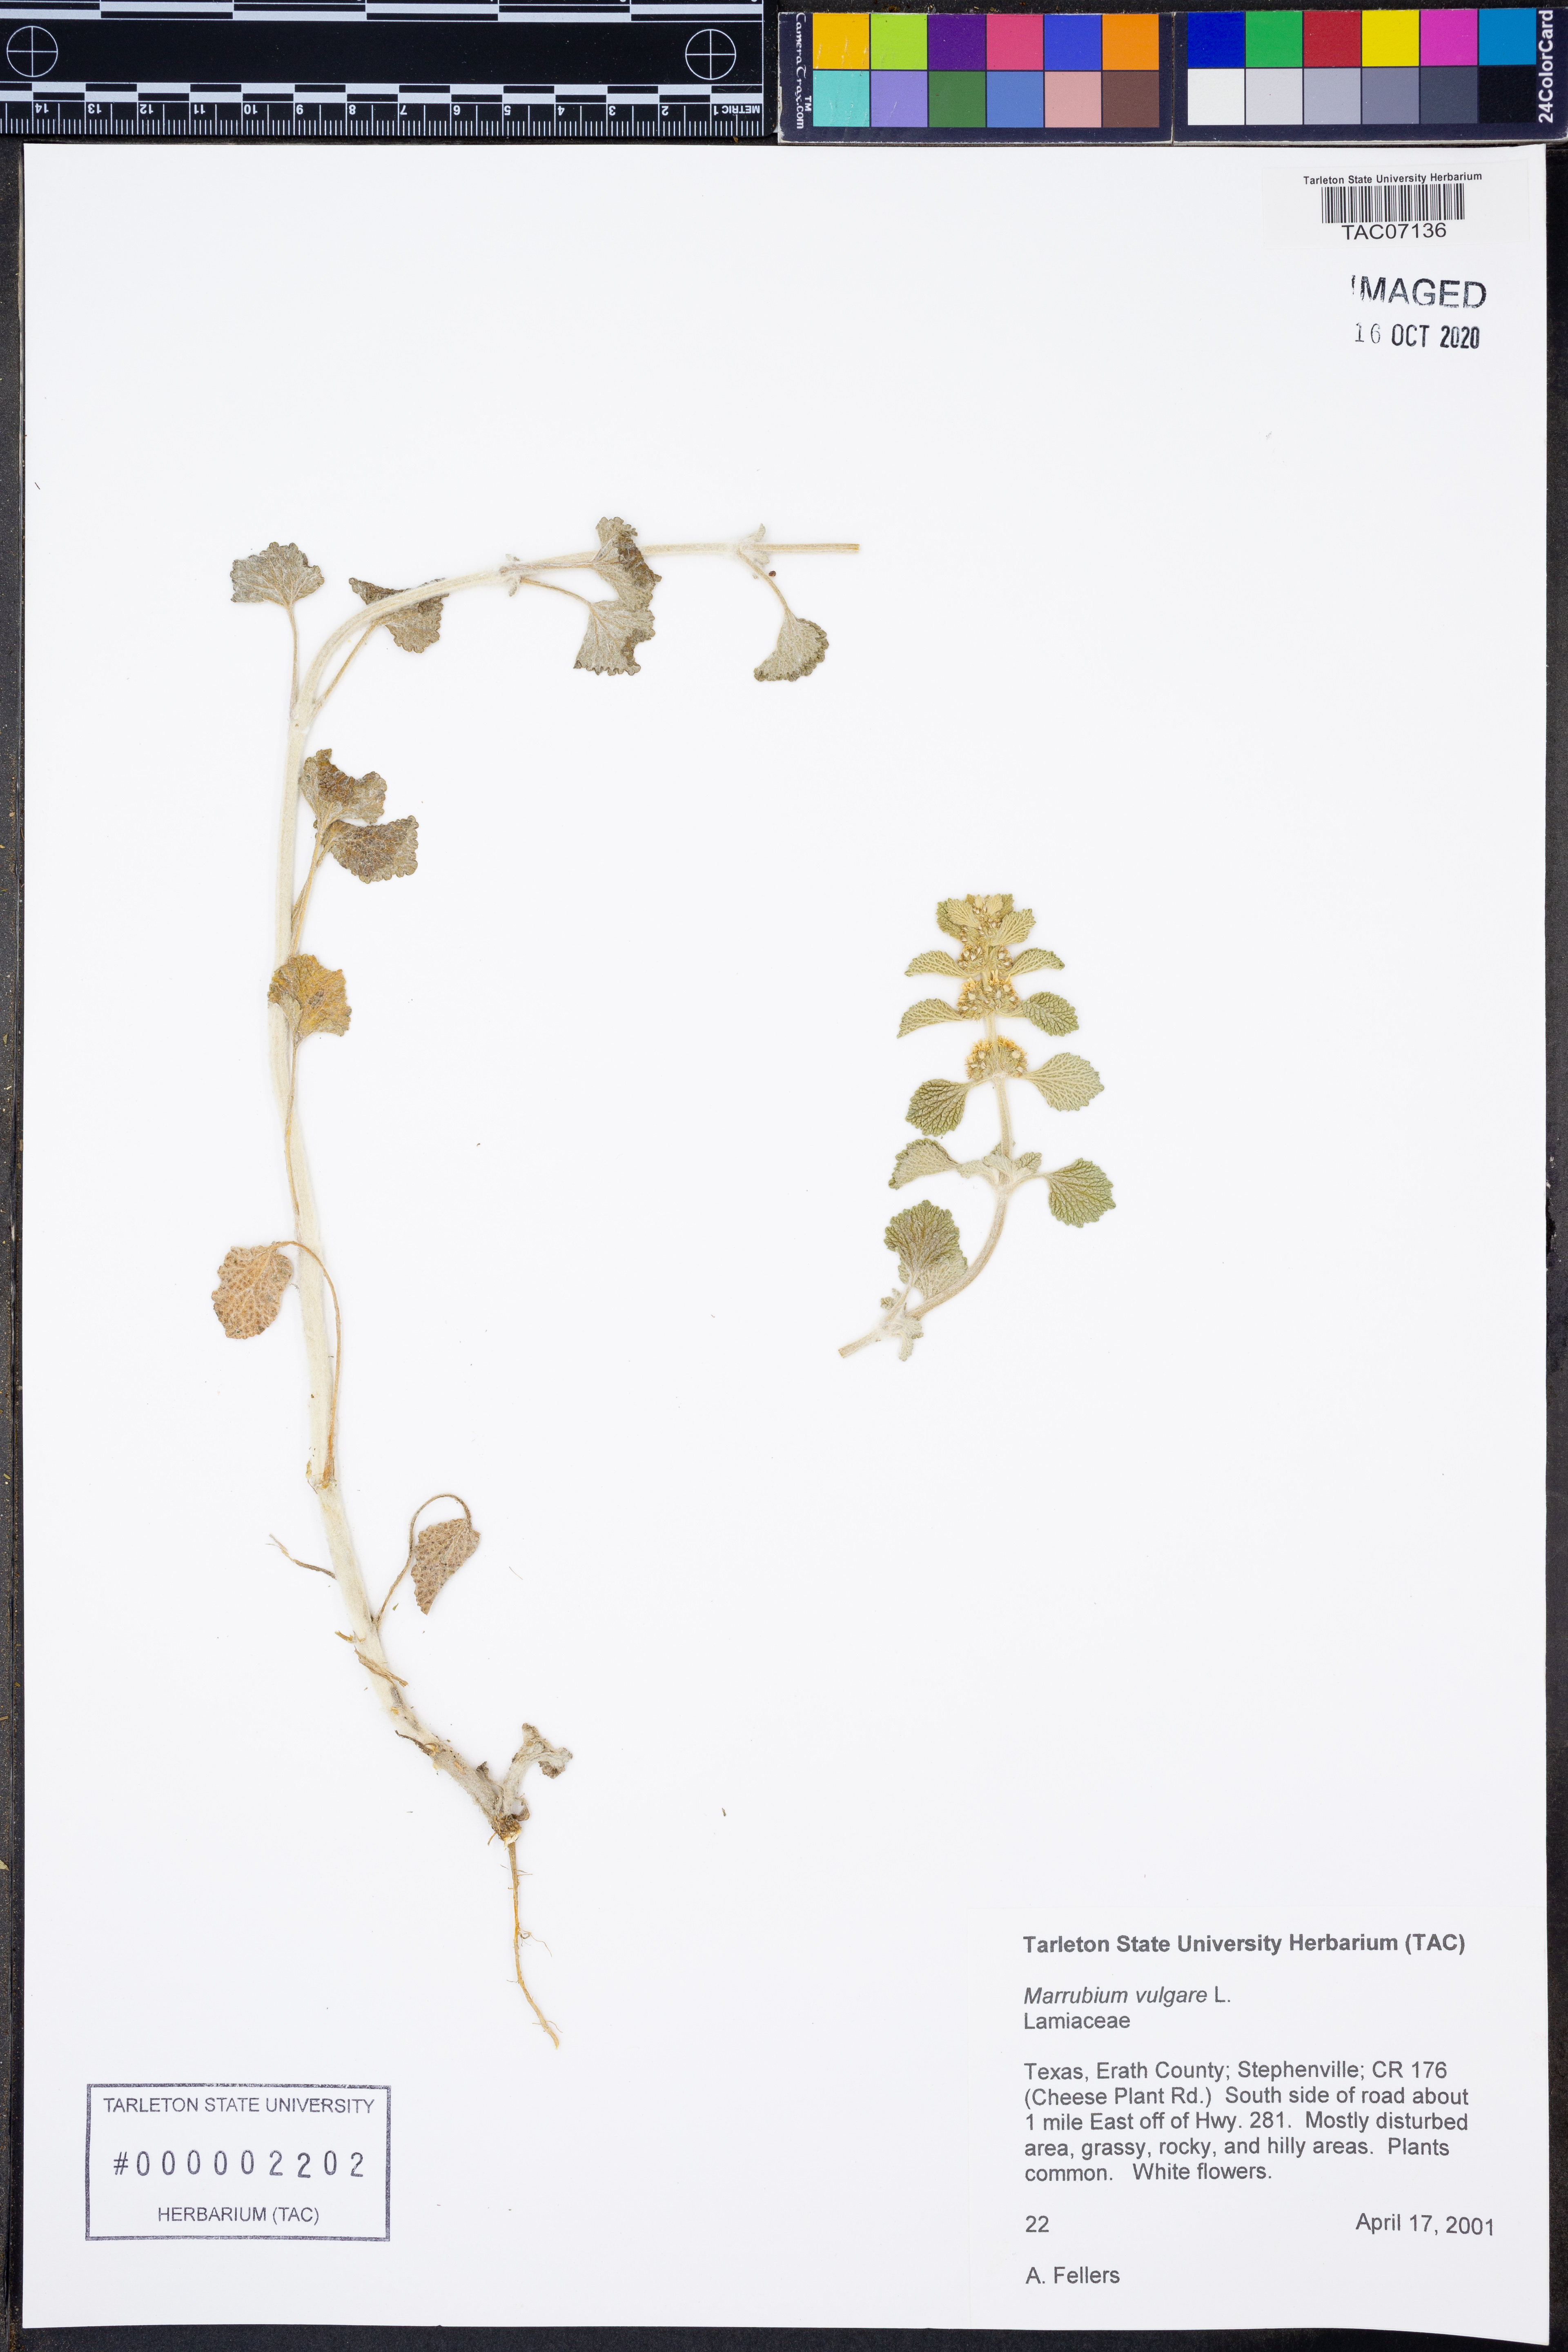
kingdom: Plantae
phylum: Tracheophyta
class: Magnoliopsida
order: Lamiales
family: Lamiaceae
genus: Marrubium
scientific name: Marrubium vulgare
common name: Horehound
